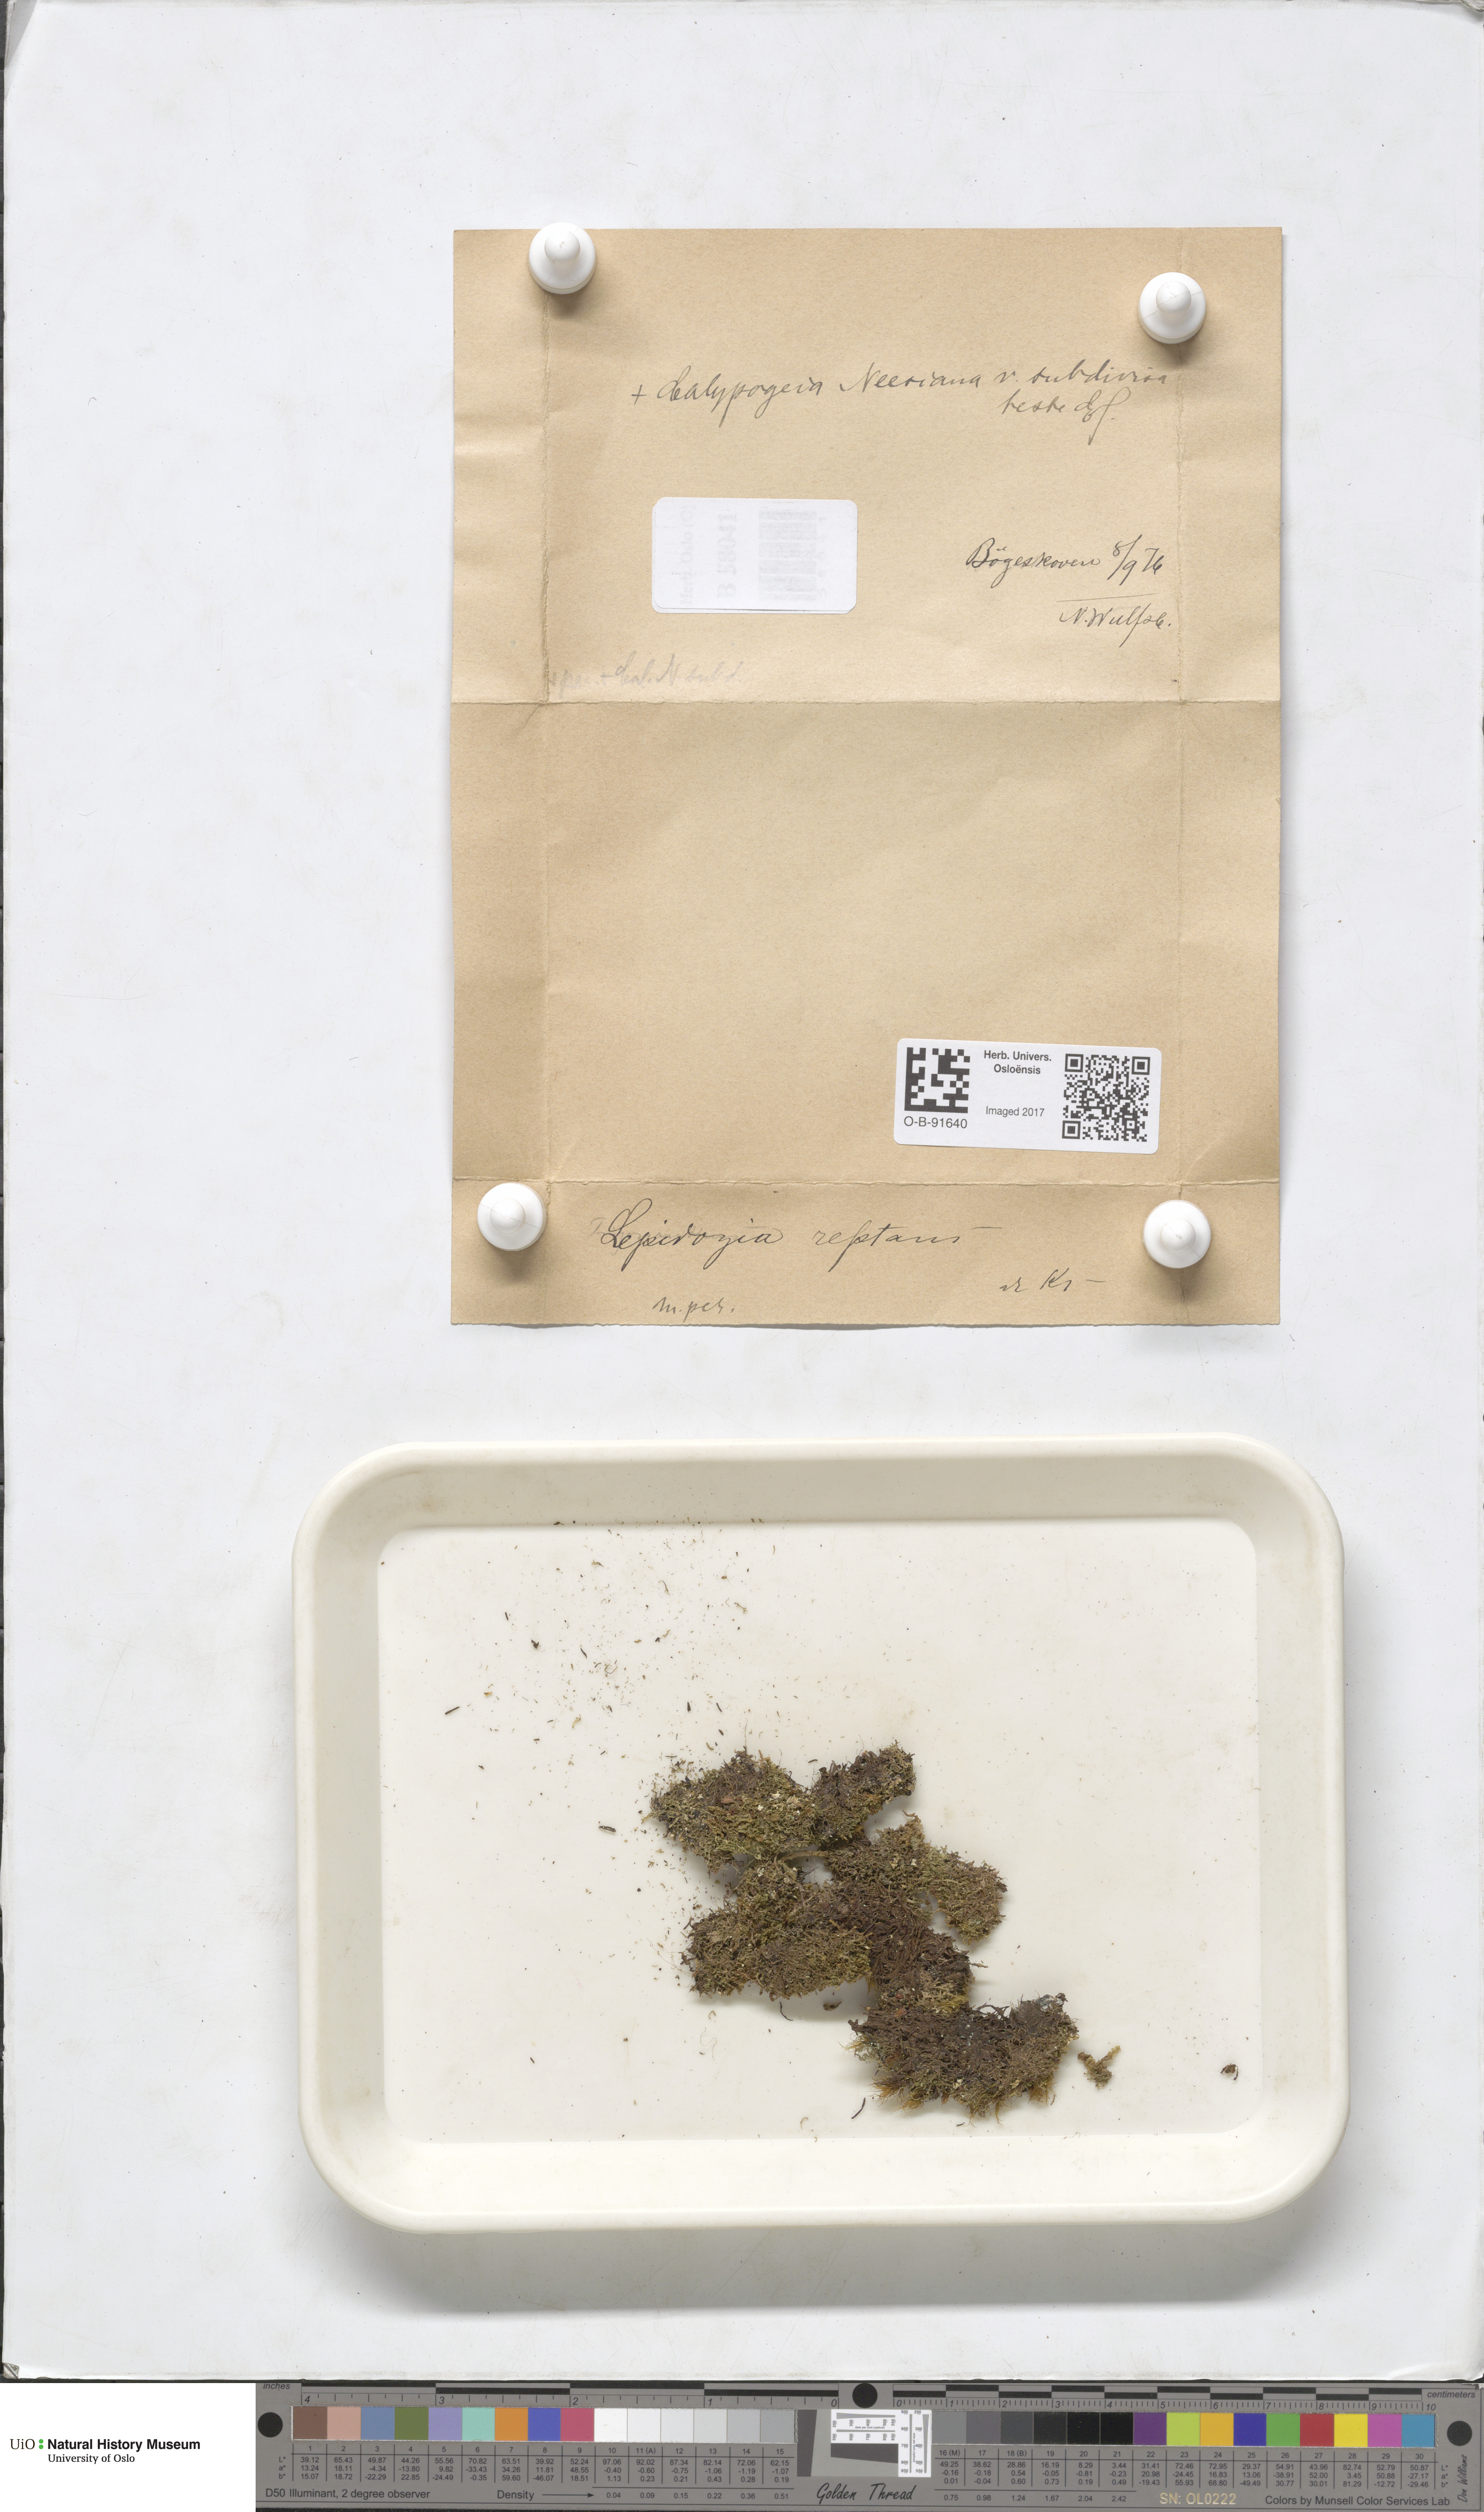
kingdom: Plantae
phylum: Marchantiophyta
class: Jungermanniopsida
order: Jungermanniales
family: Lepidoziaceae
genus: Lepidozia
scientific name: Lepidozia reptans
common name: Creeping fingerwort
